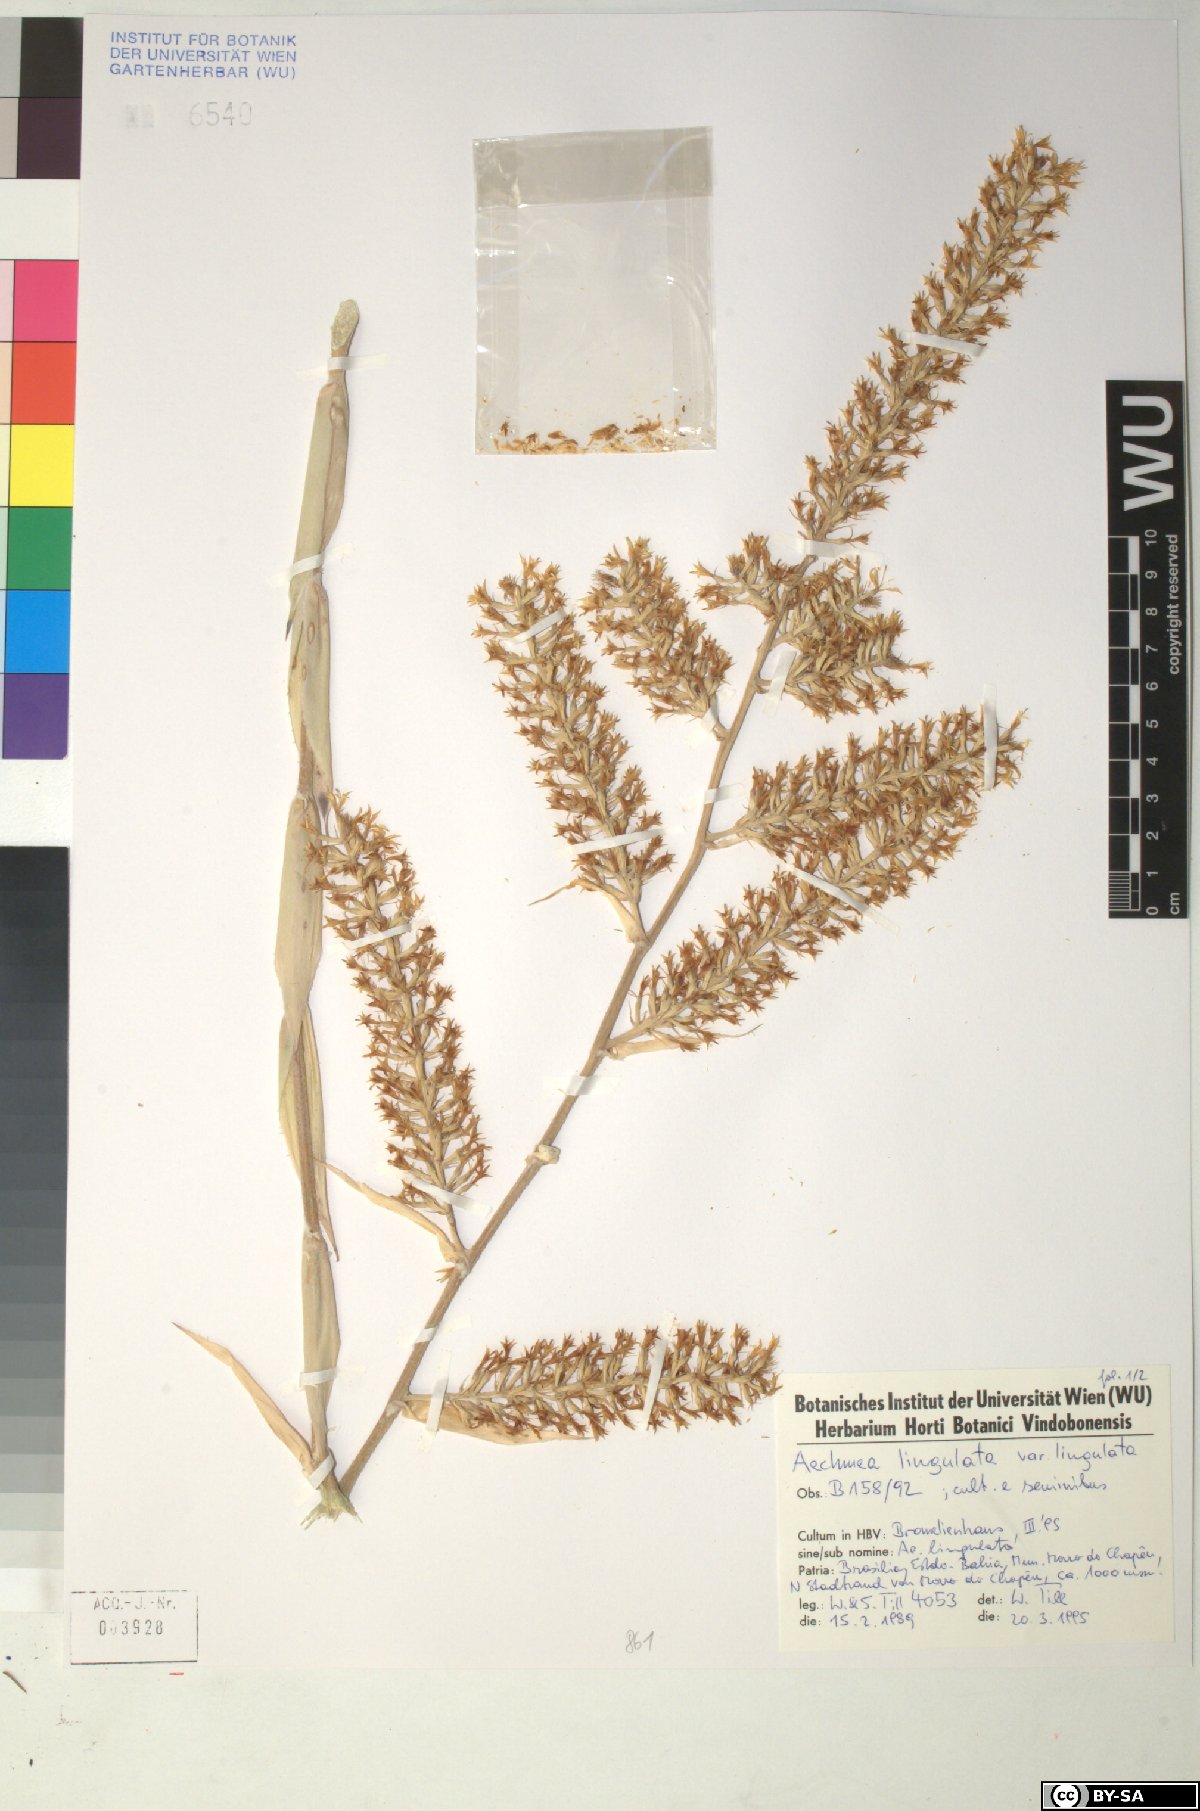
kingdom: Plantae
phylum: Tracheophyta
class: Liliopsida
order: Poales
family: Bromeliaceae
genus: Wittmackia
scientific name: Wittmackia lingulata
